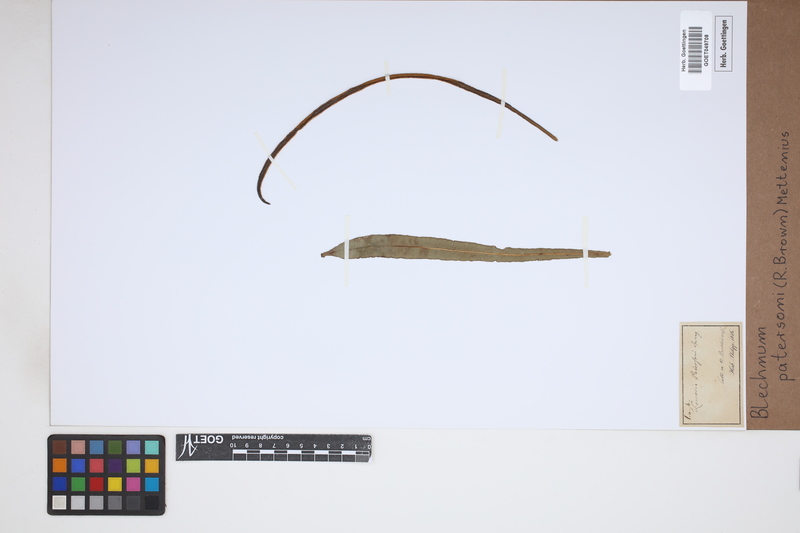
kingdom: Plantae
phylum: Tracheophyta
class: Polypodiopsida
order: Polypodiales
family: Blechnaceae
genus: Austroblechnum
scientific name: Austroblechnum patersonii
